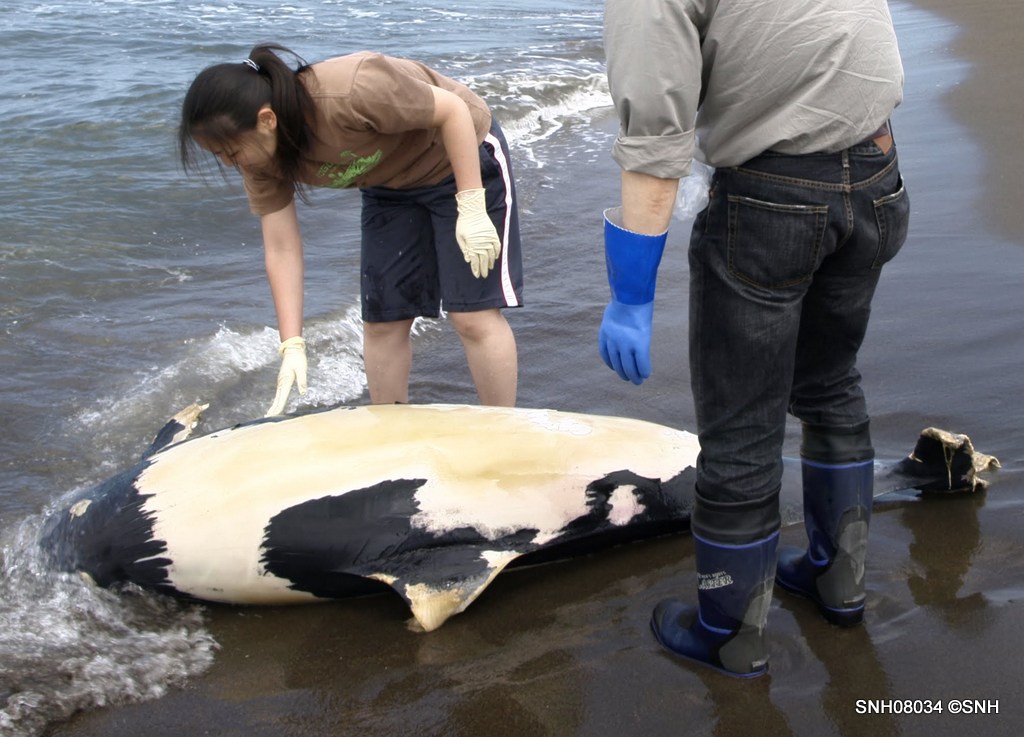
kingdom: Animalia
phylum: Chordata
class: Mammalia
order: Cetacea
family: Phocoenidae
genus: Phocoenoides
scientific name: Phocoenoides dalli
